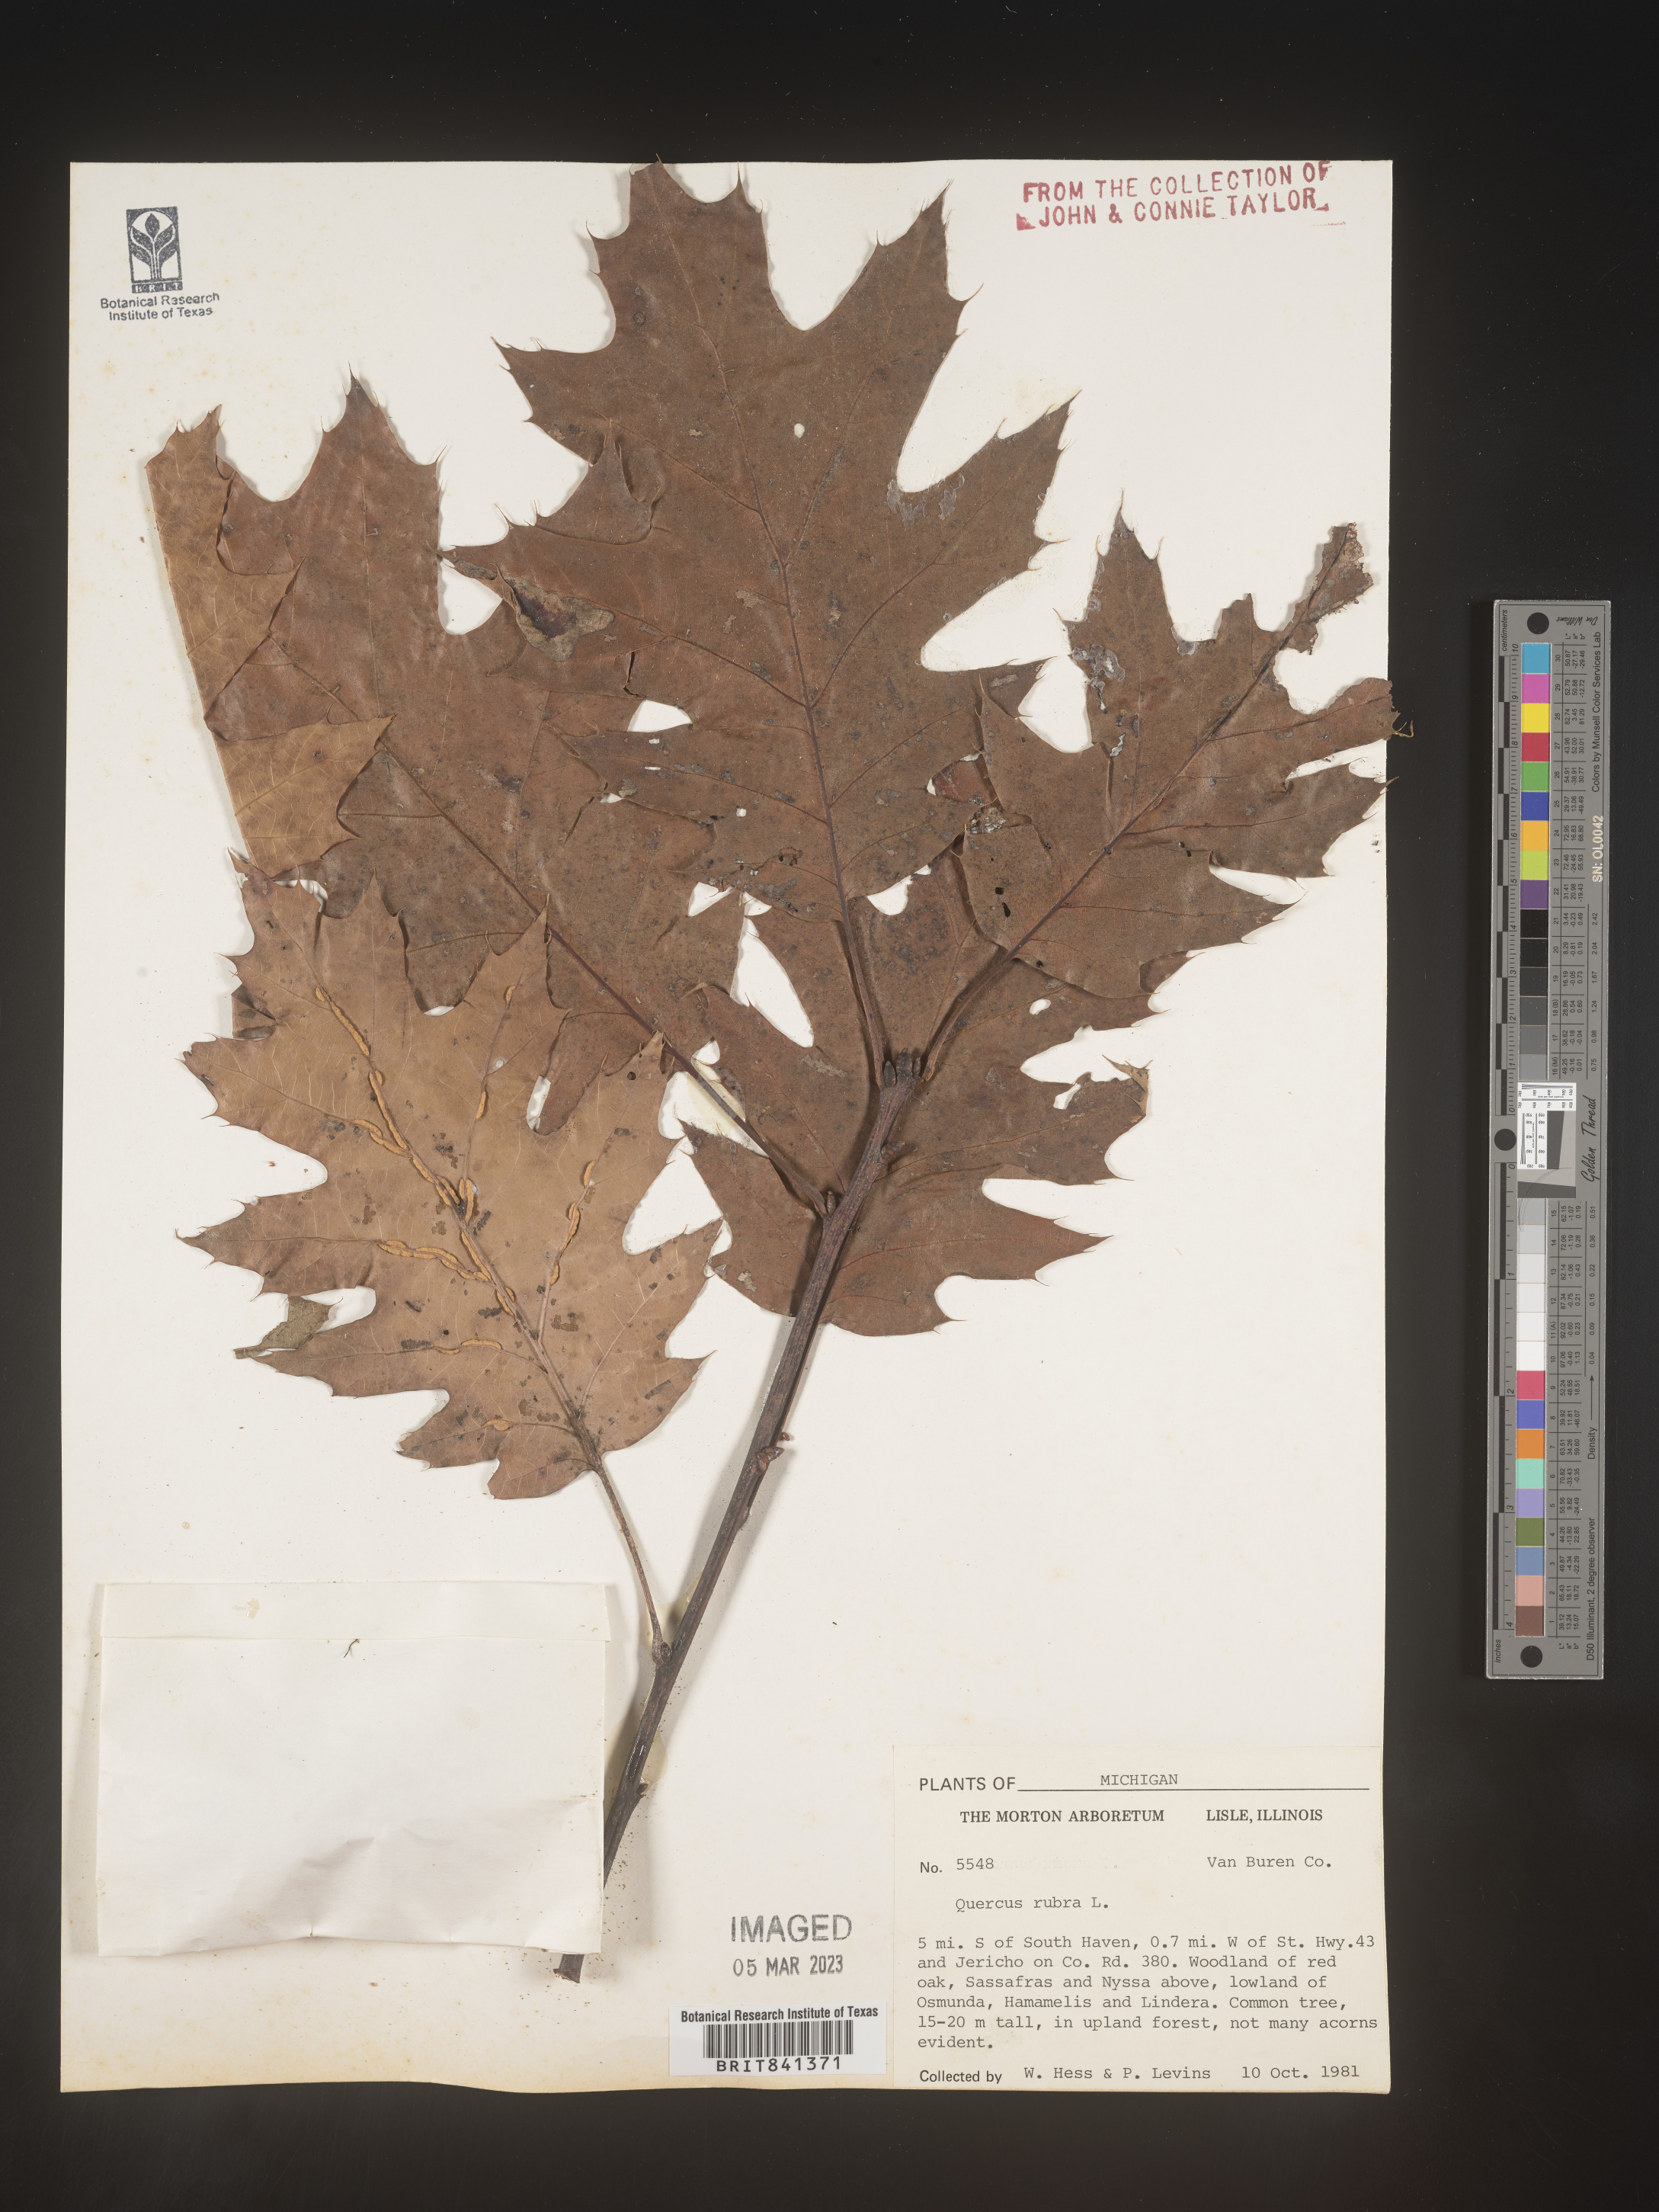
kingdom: Plantae
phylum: Tracheophyta
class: Magnoliopsida
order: Fagales
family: Fagaceae
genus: Quercus
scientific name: Quercus rubra
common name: Red oak
